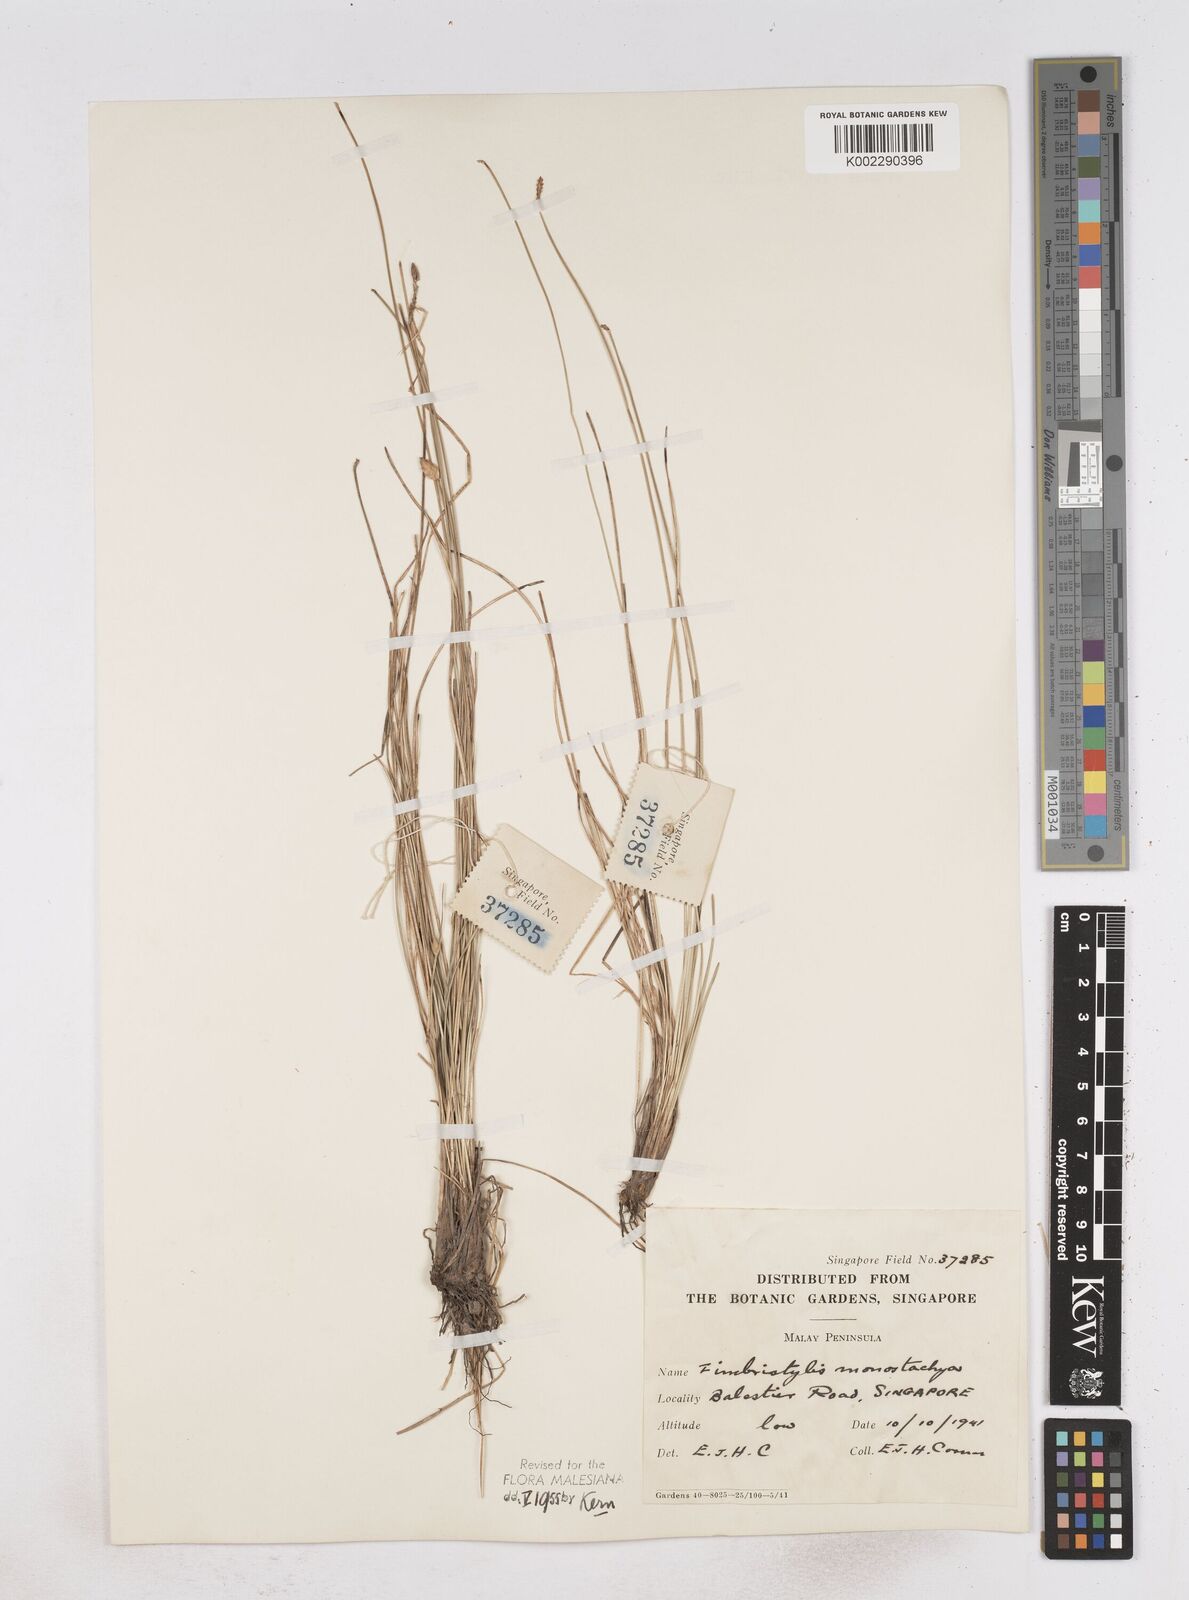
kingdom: Plantae
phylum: Tracheophyta
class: Liliopsida
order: Poales
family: Cyperaceae
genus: Abildgaardia
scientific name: Abildgaardia ovata
